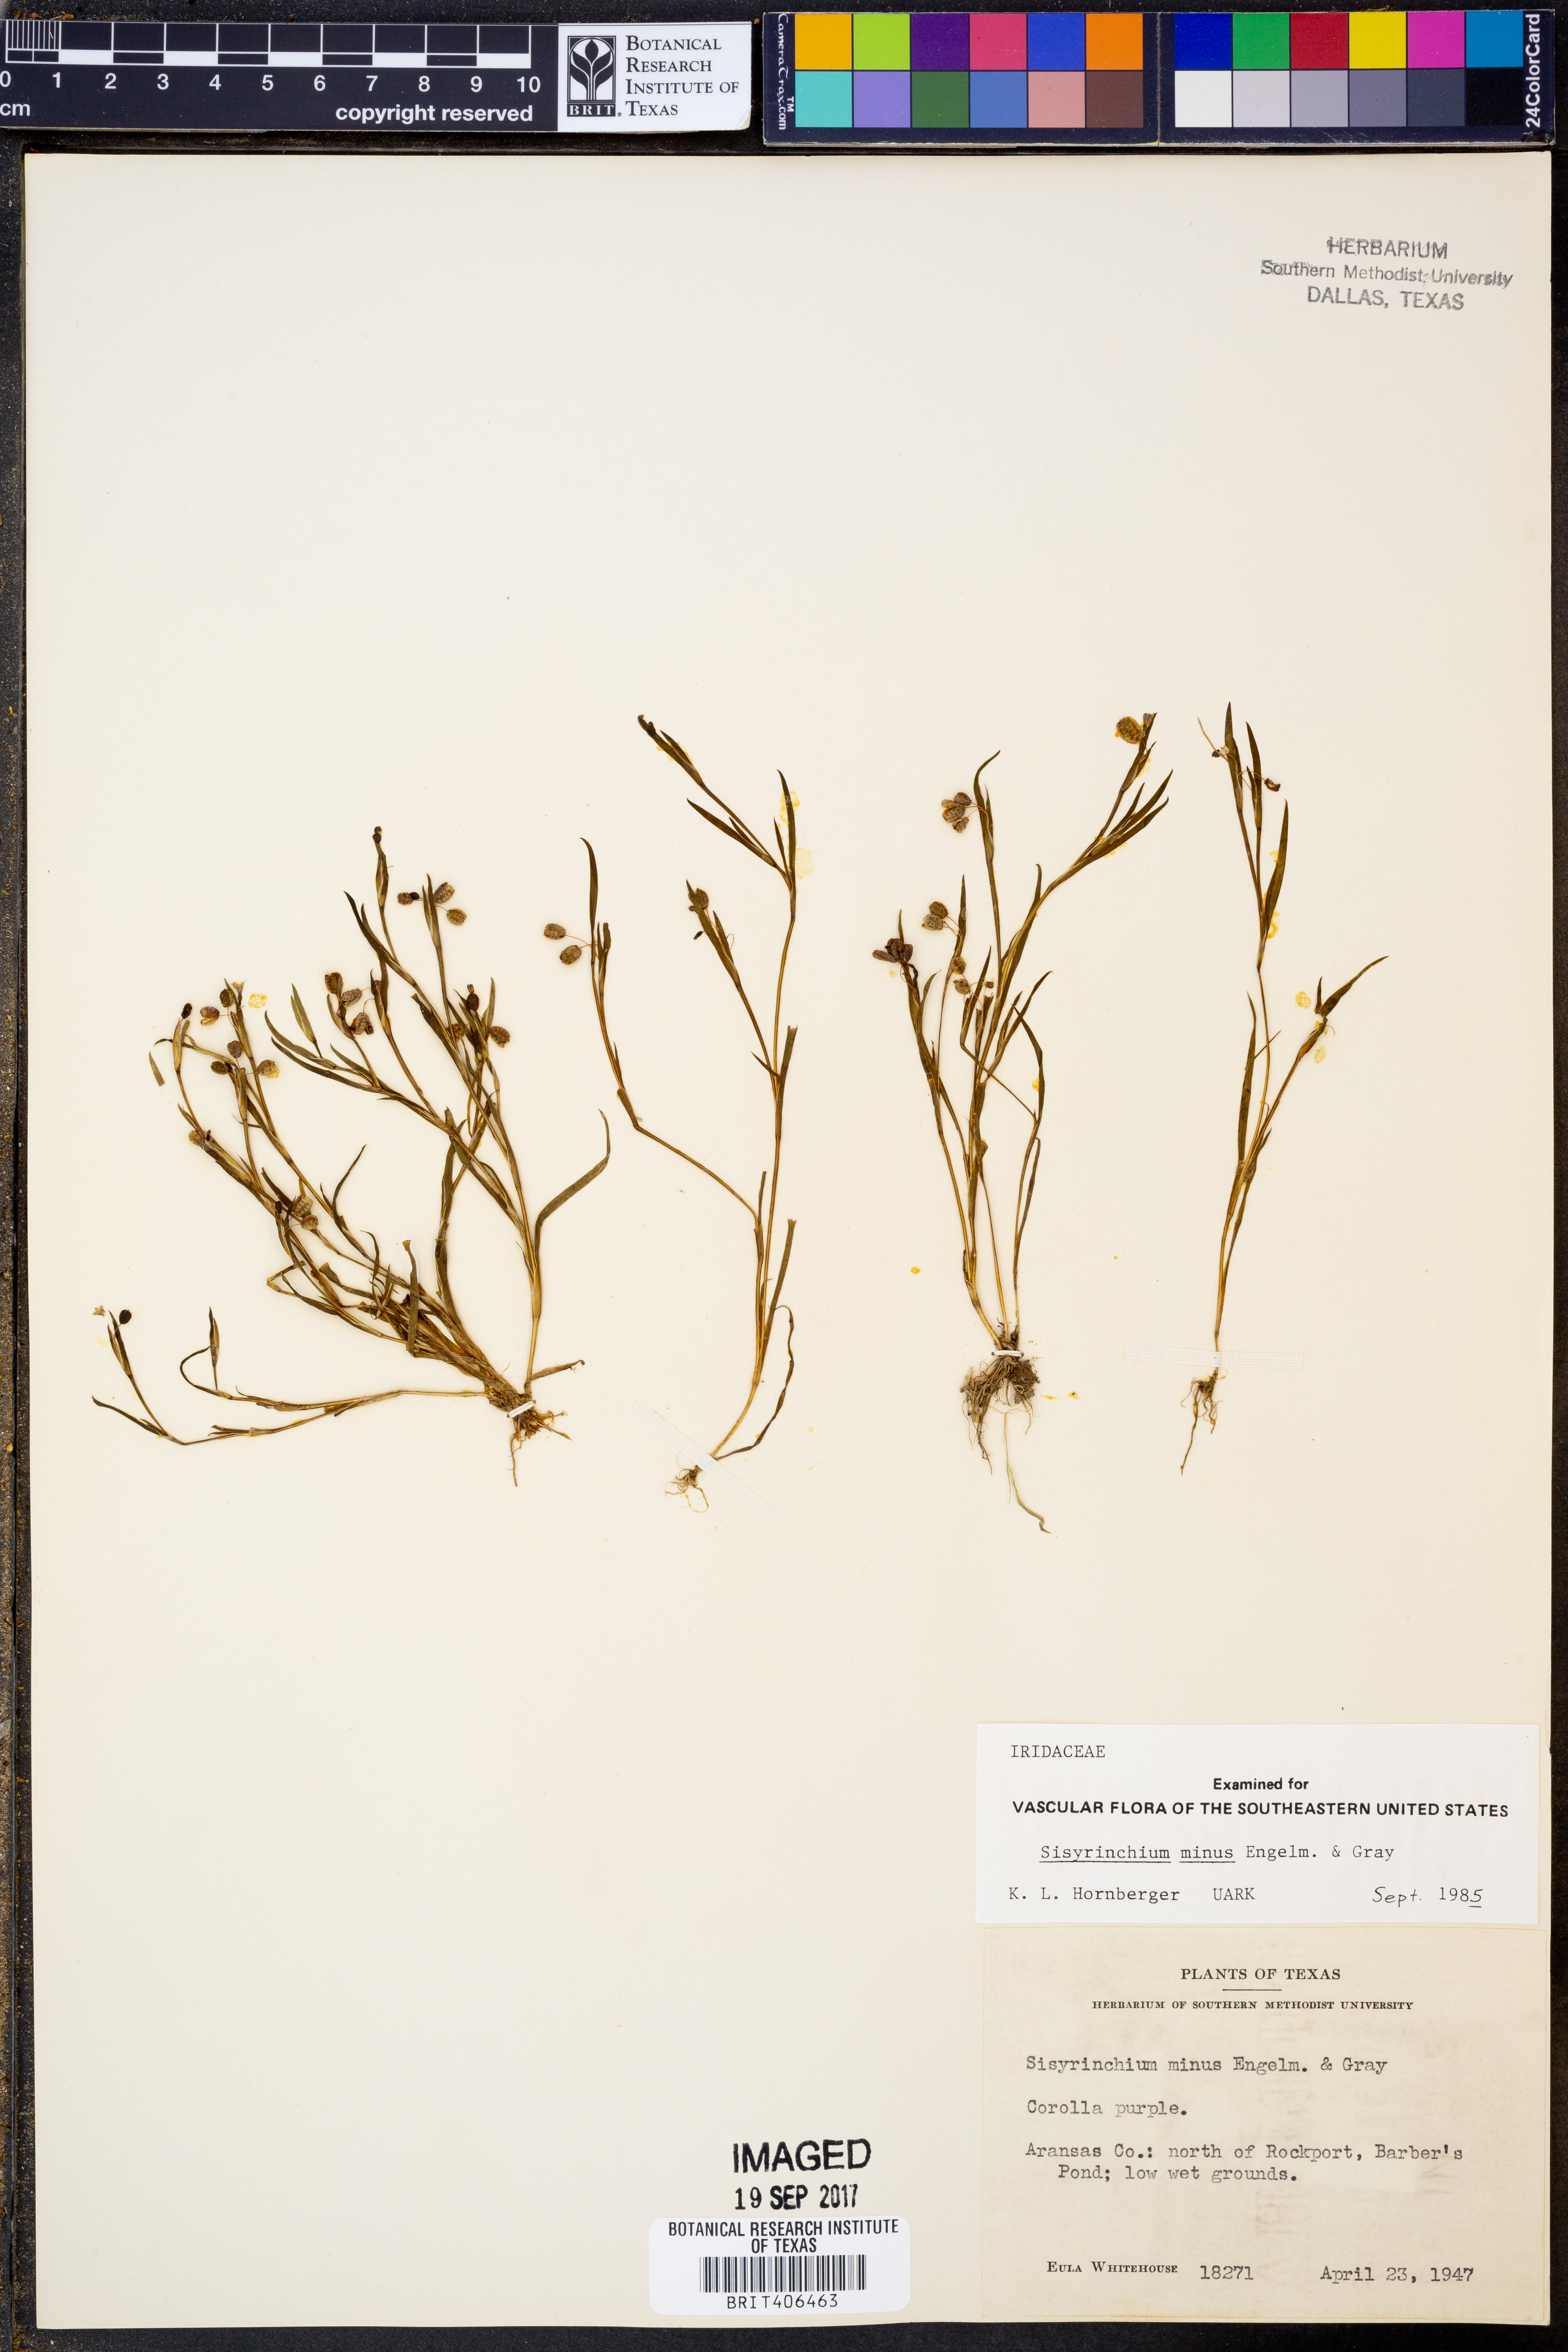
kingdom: Plantae
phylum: Tracheophyta
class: Liliopsida
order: Asparagales
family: Iridaceae
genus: Sisyrinchium
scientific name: Sisyrinchium minus
